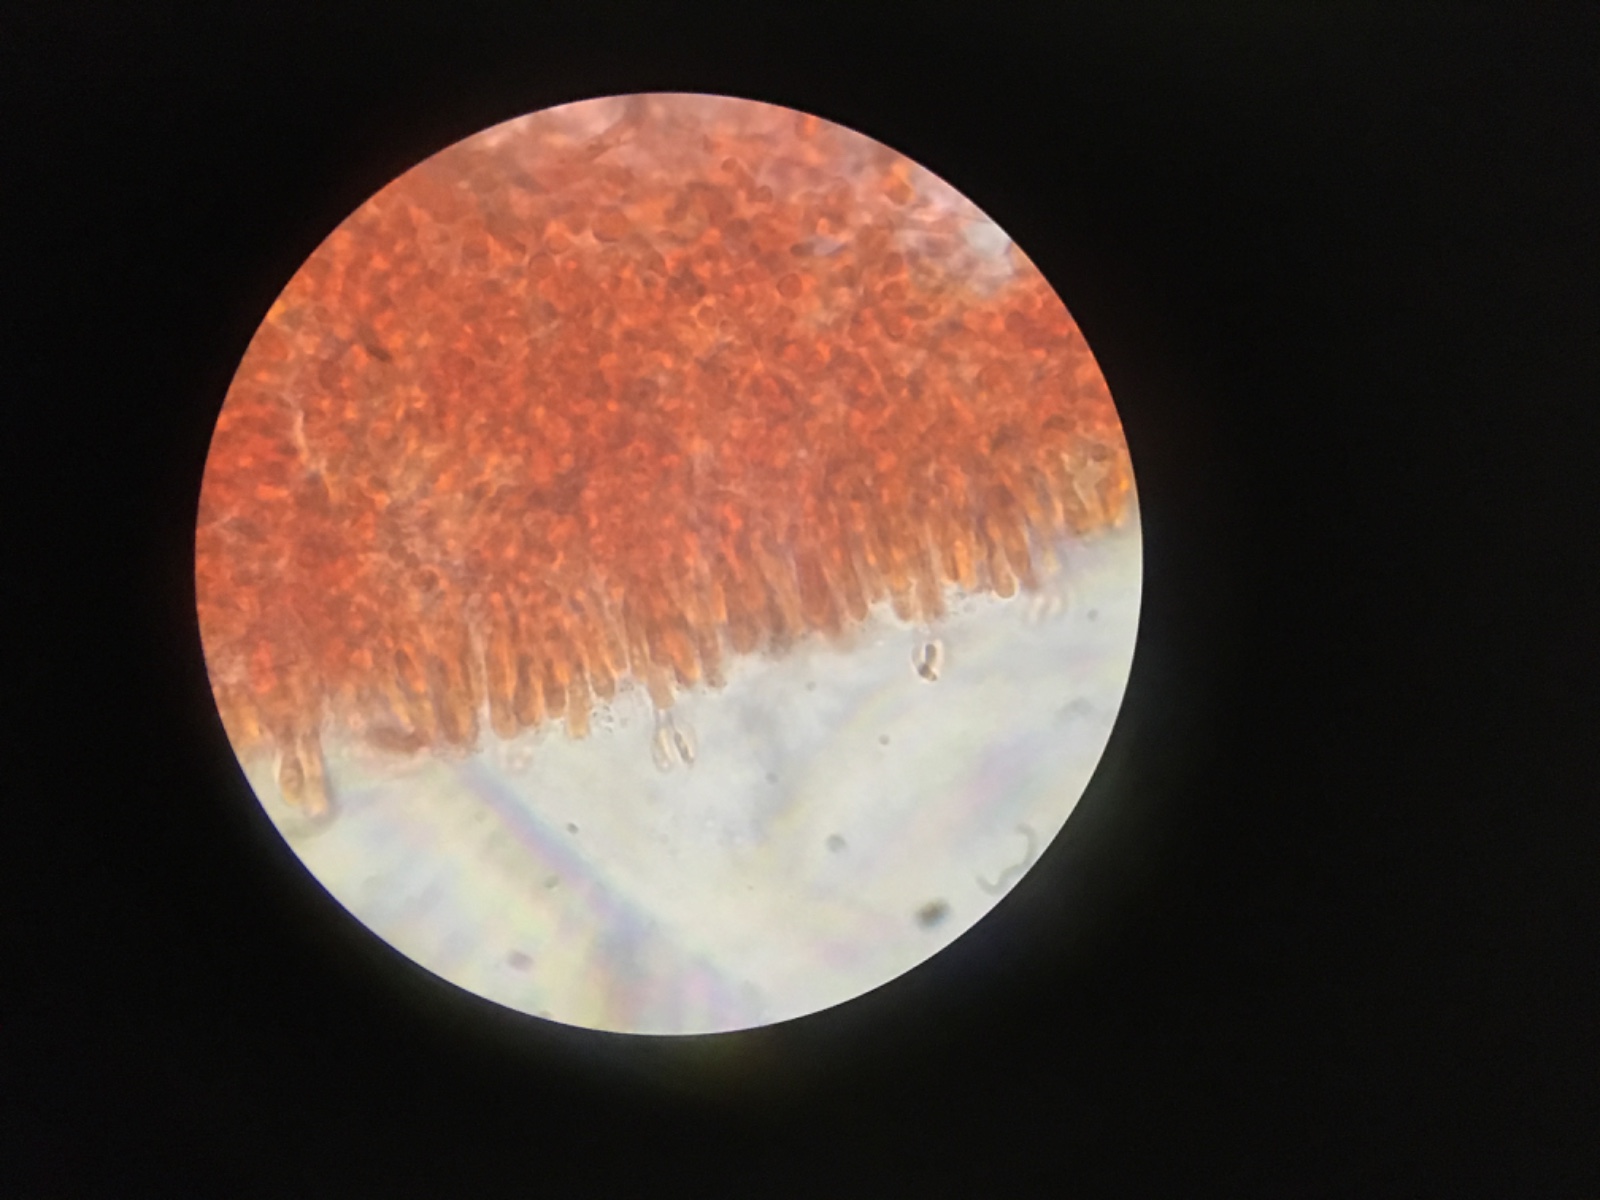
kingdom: Fungi
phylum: Basidiomycota
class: Agaricomycetes
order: Agaricales
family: Mycenaceae
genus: Panellus
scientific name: Panellus mitis
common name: mild epaulethat
